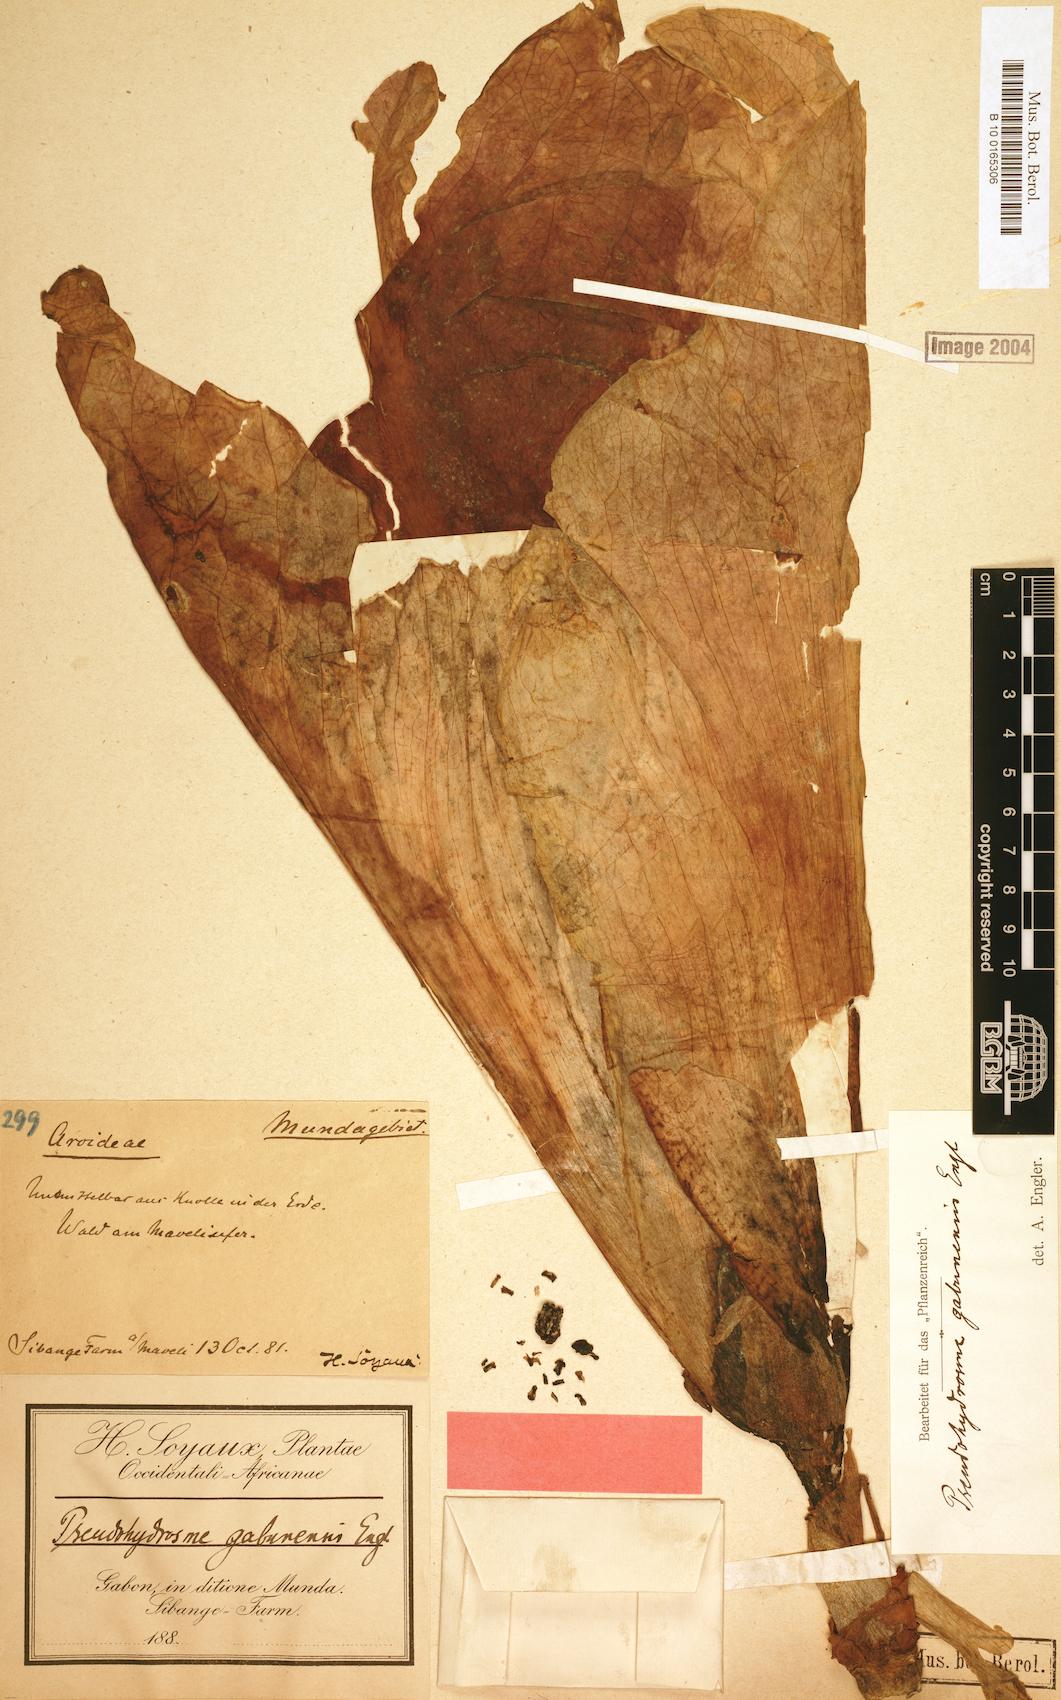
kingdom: Plantae
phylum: Tracheophyta
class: Liliopsida
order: Alismatales
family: Araceae
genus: Pseudohydrosme
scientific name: Pseudohydrosme gabunensis
